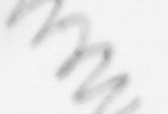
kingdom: Chromista
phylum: Ochrophyta
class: Bacillariophyceae
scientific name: Bacillariophyceae
